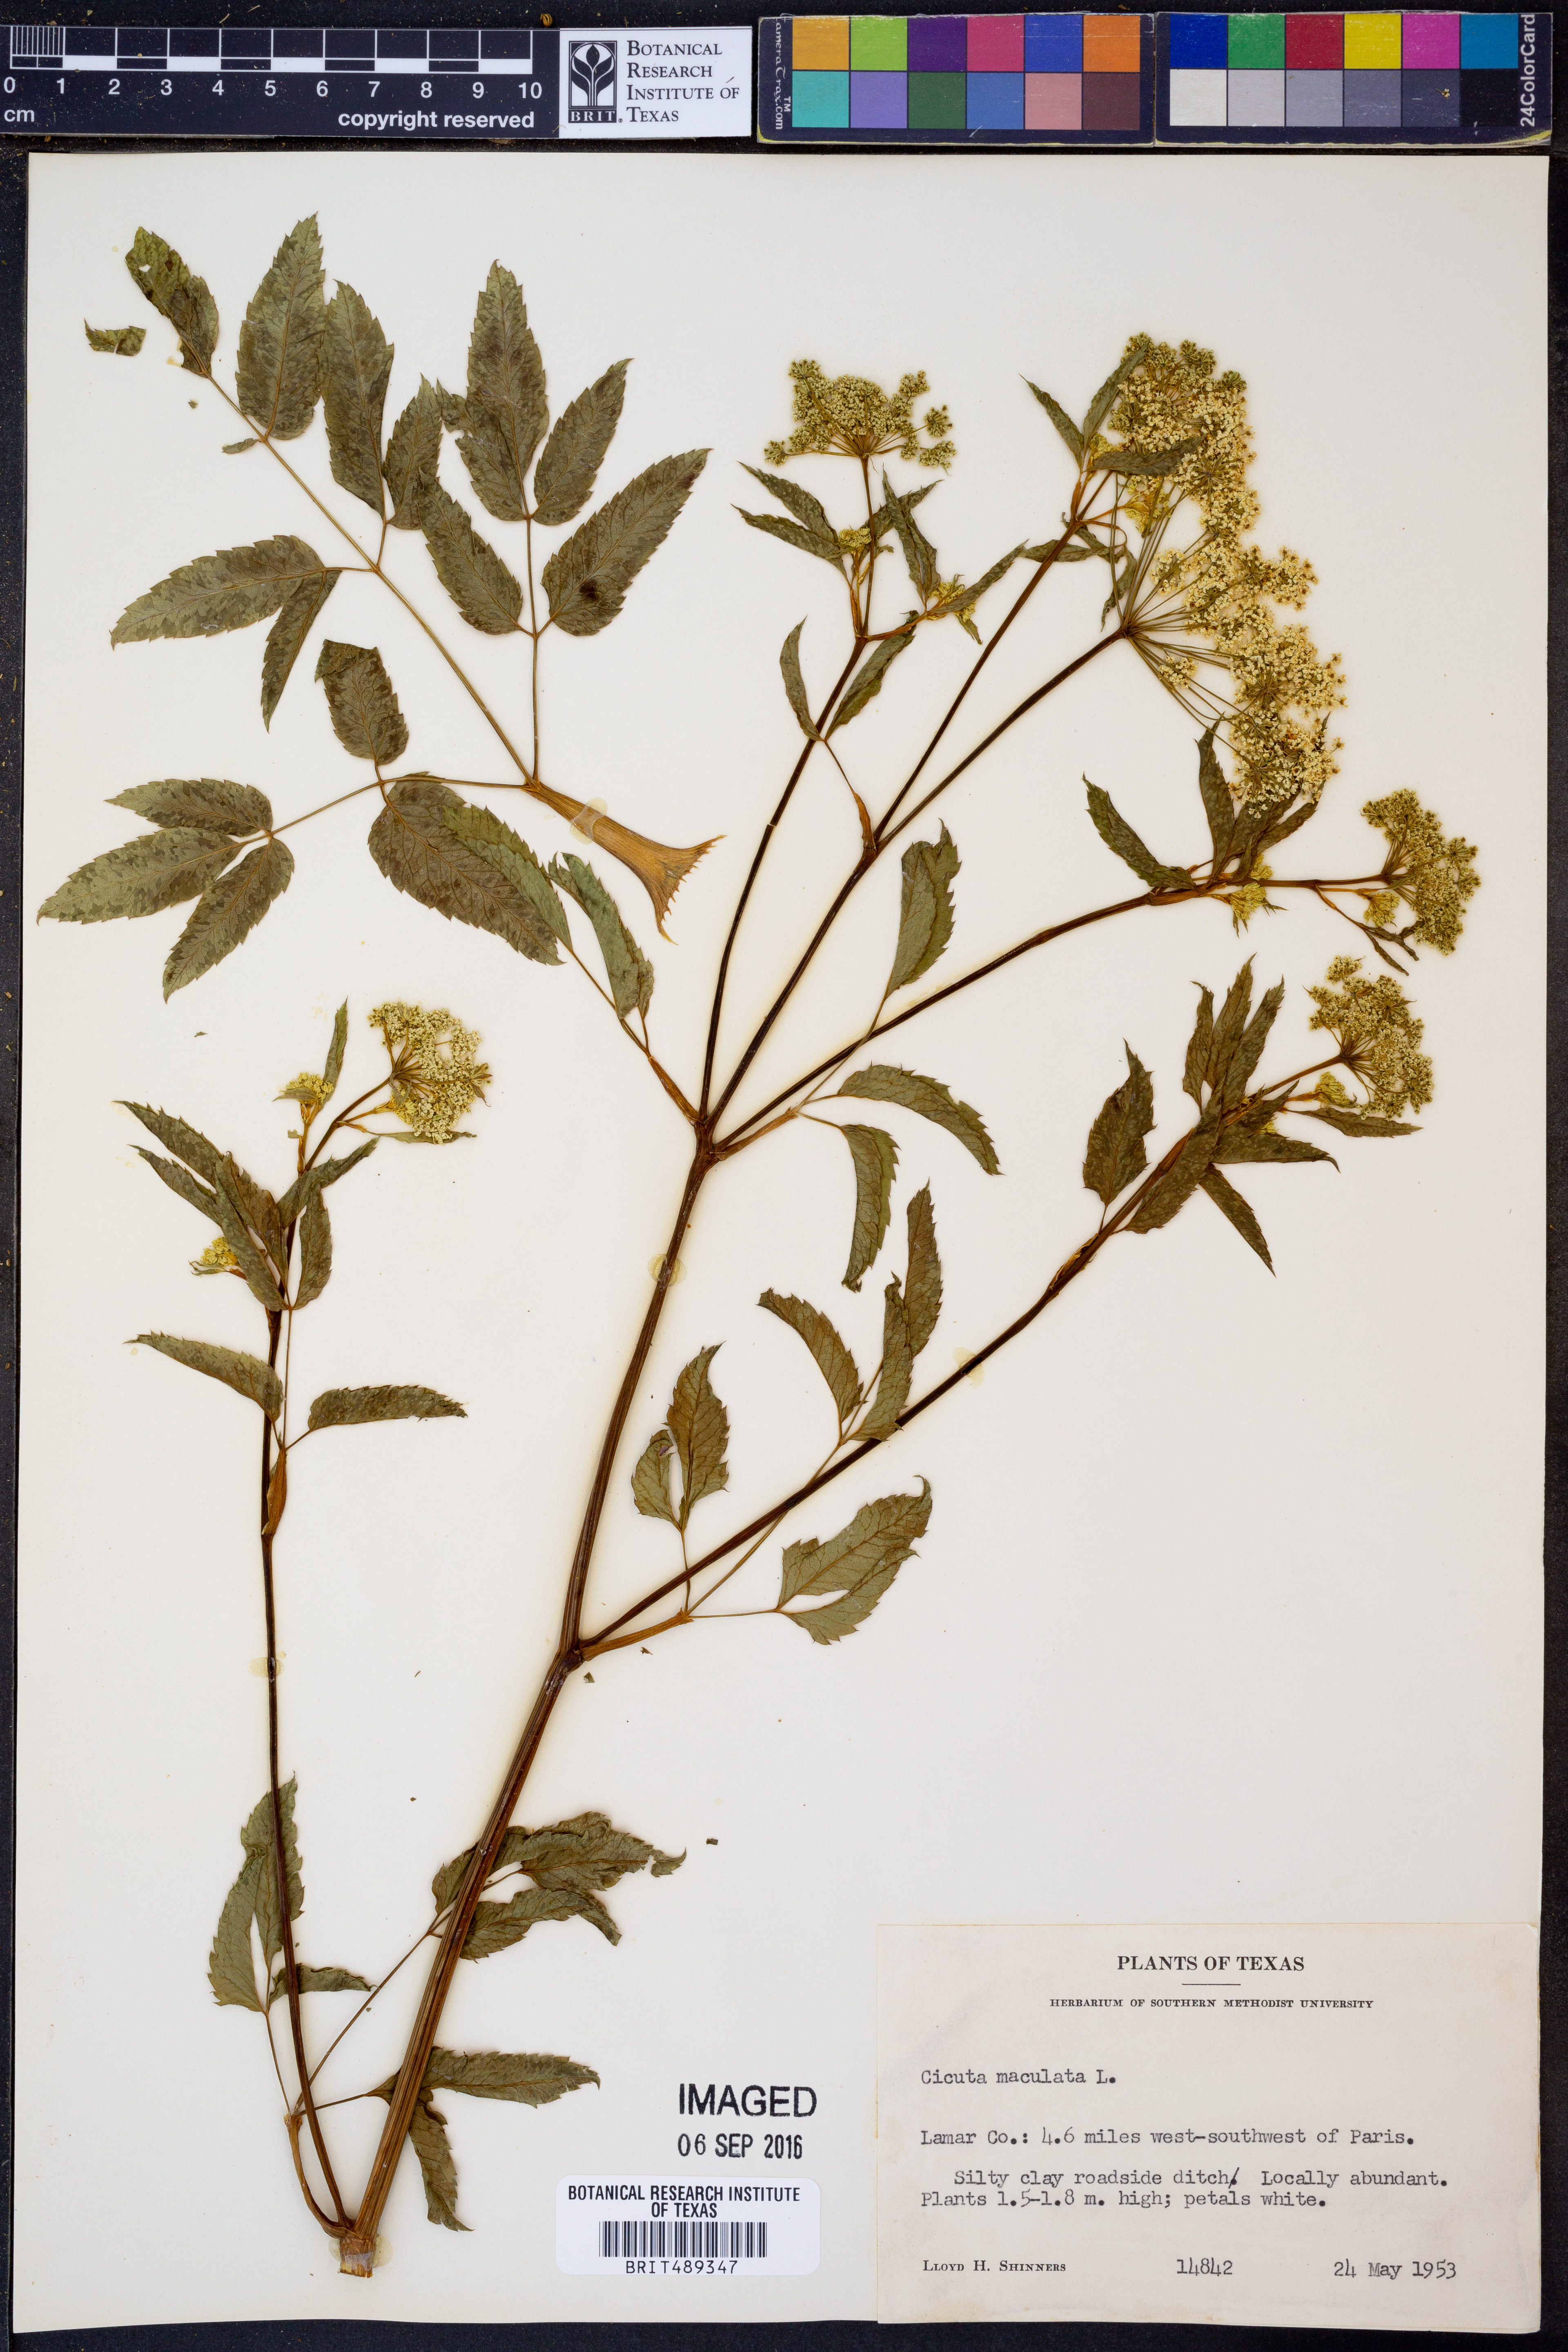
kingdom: Plantae
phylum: Tracheophyta
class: Magnoliopsida
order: Apiales
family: Apiaceae
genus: Cicuta
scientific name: Cicuta maculata
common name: Spotted cowbane
